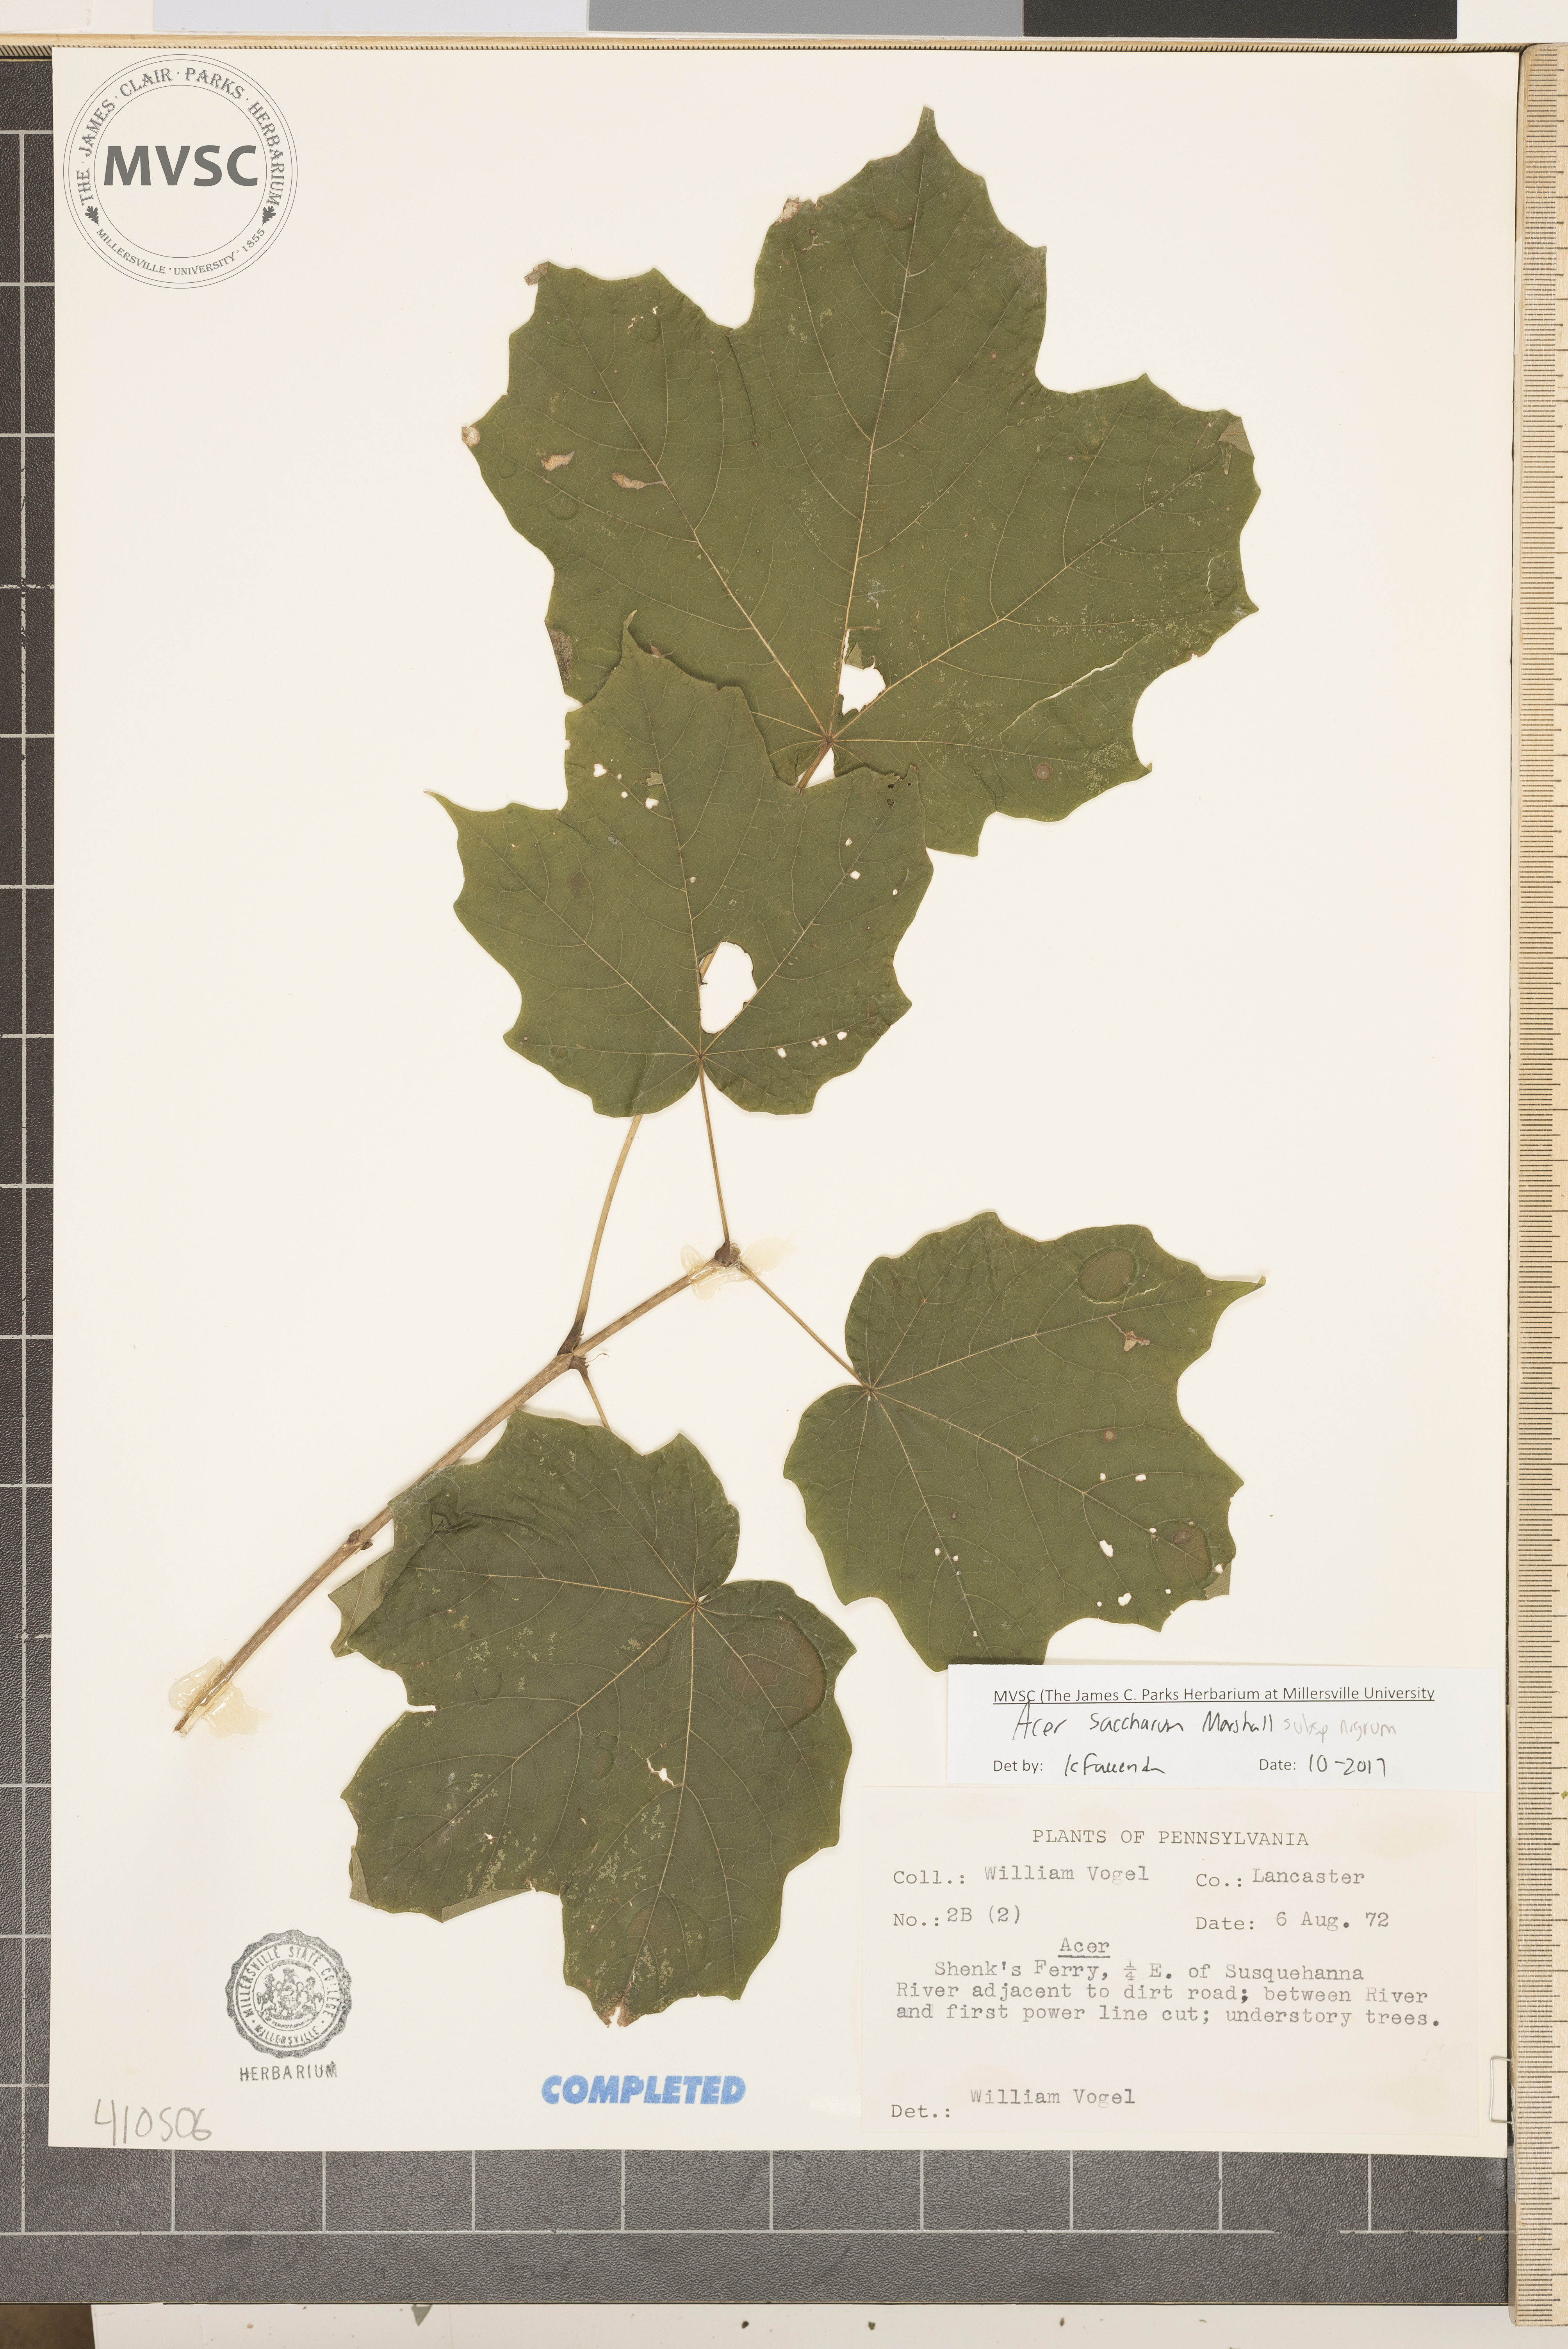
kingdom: Plantae
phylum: Tracheophyta
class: Magnoliopsida
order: Sapindales
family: Sapindaceae
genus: Acer
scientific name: Acer saccharum
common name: sugar maple
